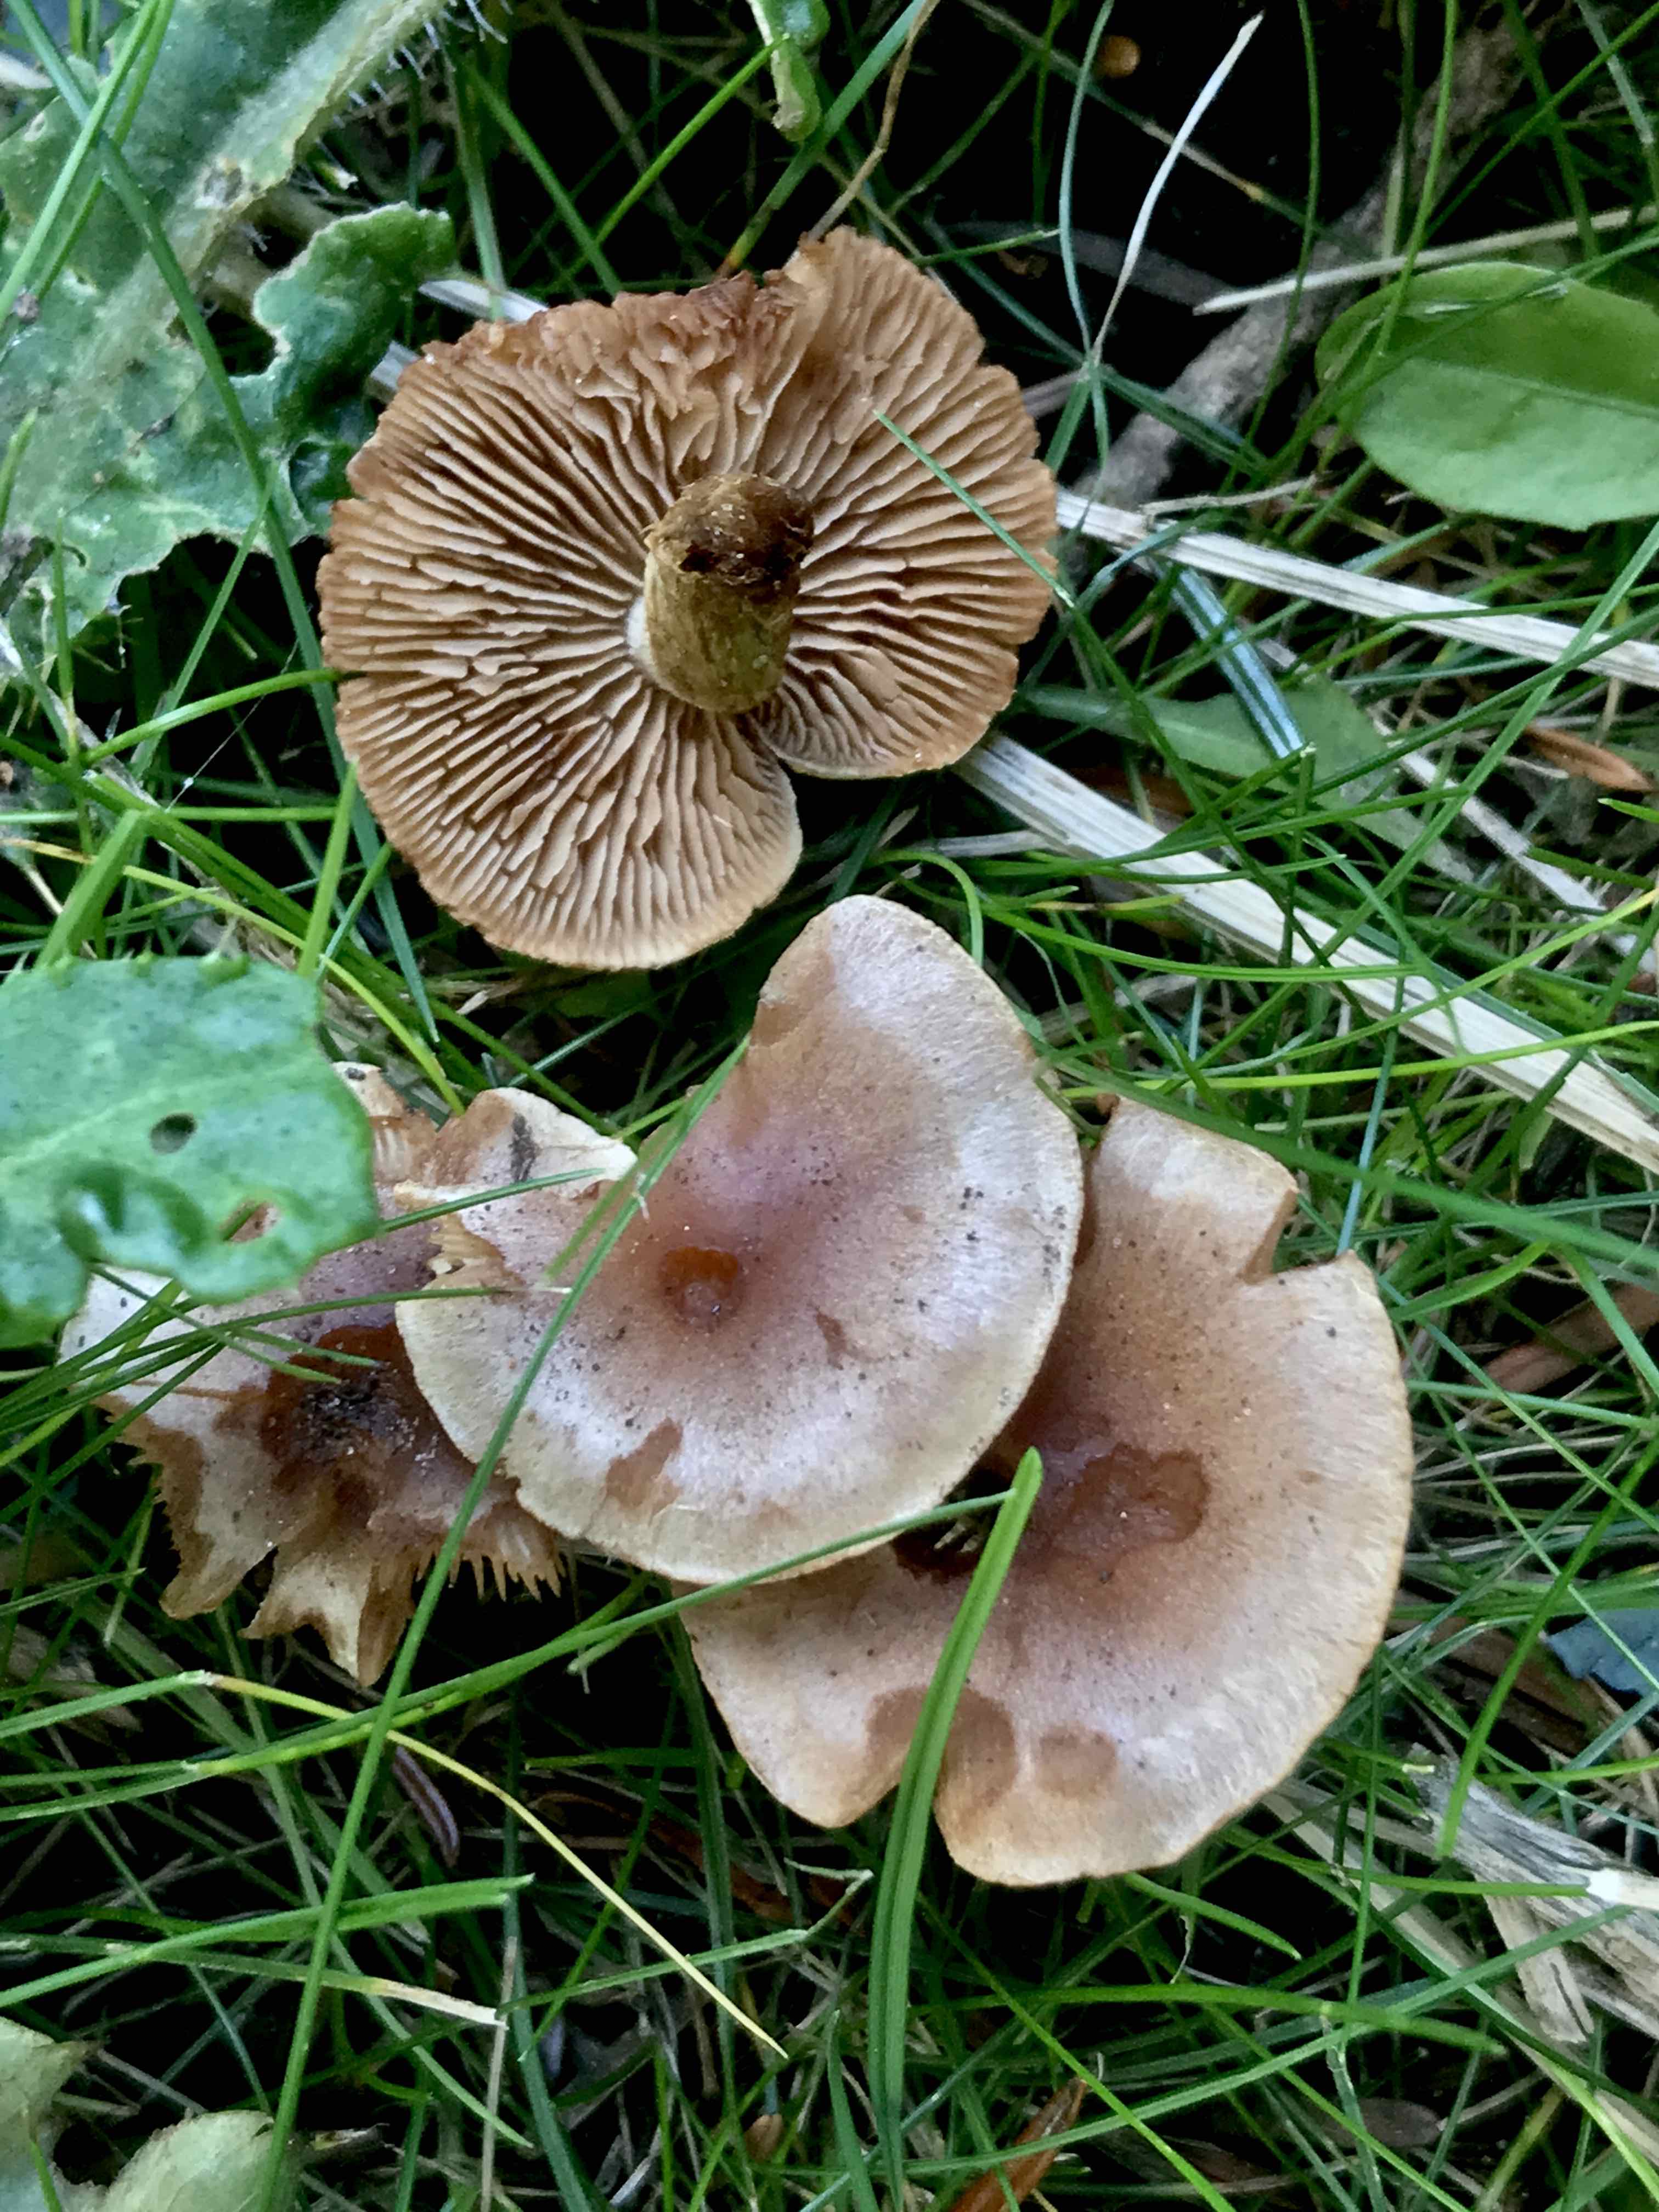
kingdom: Fungi
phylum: Basidiomycota
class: Agaricomycetes
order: Agaricales
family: Hymenogastraceae
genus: Hebeloma
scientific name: Hebeloma mesophaeum
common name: lerbrun tåreblad
